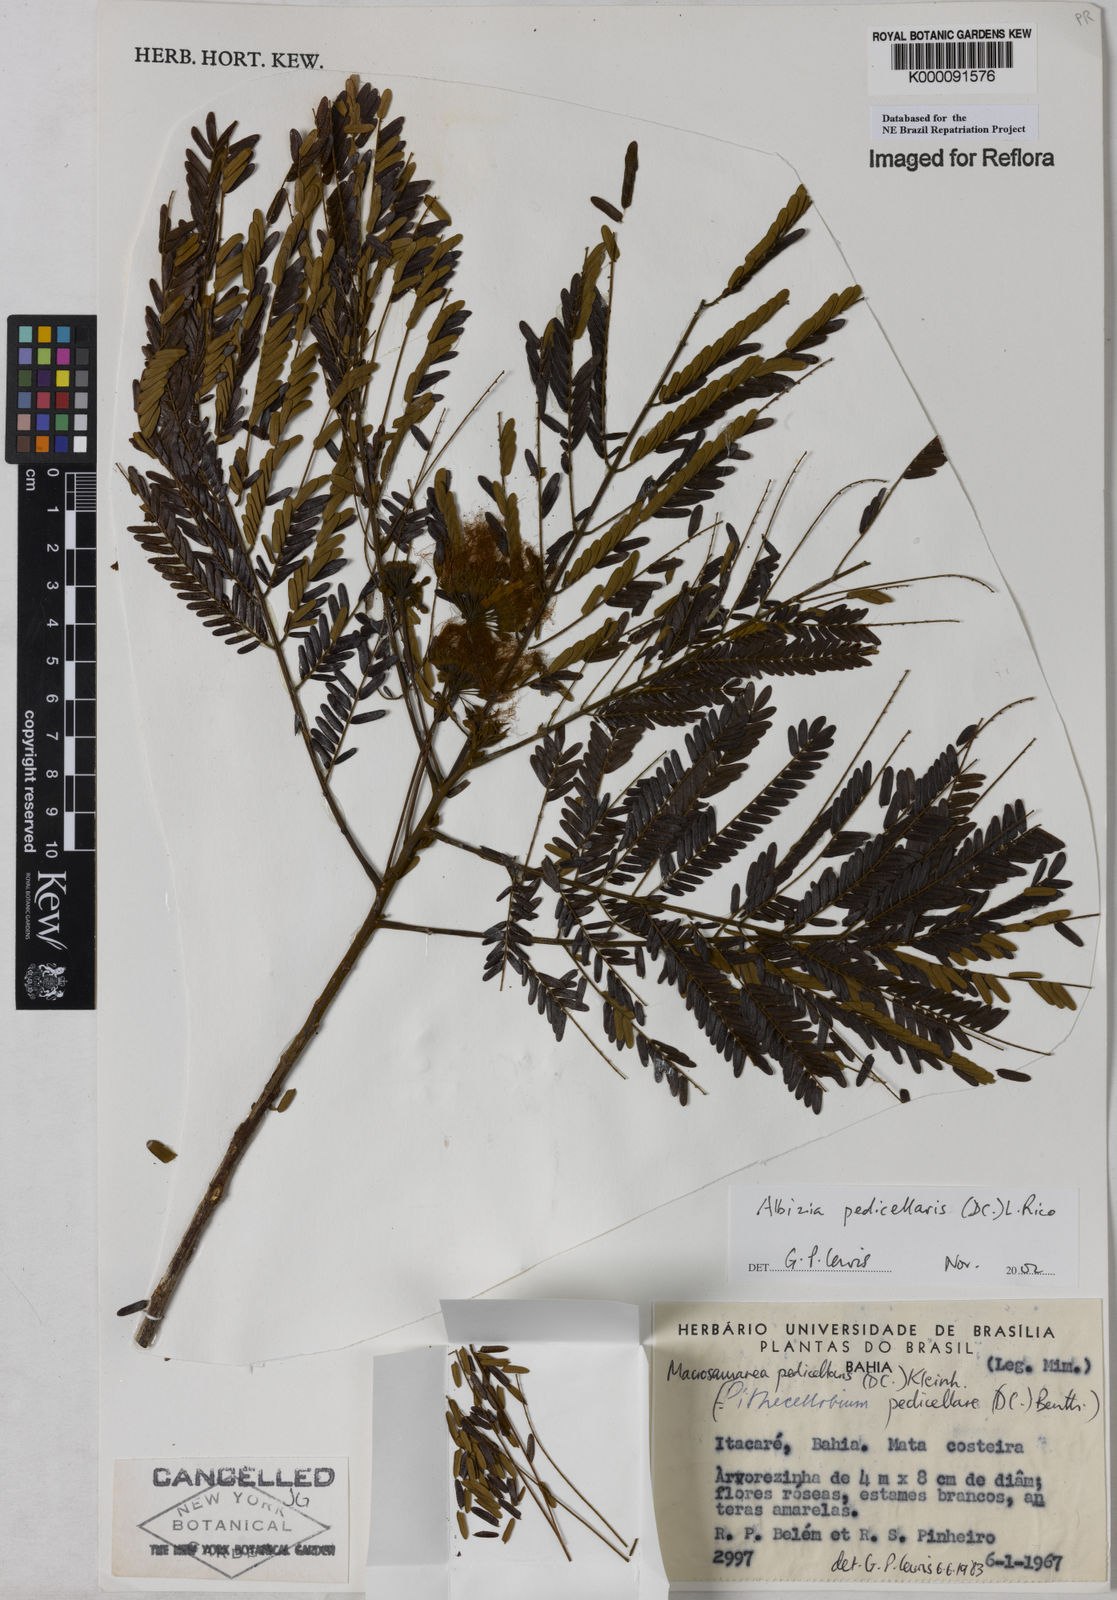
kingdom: Plantae
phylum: Tracheophyta
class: Magnoliopsida
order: Fabales
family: Fabaceae
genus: Balizia
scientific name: Balizia pedicellaris
